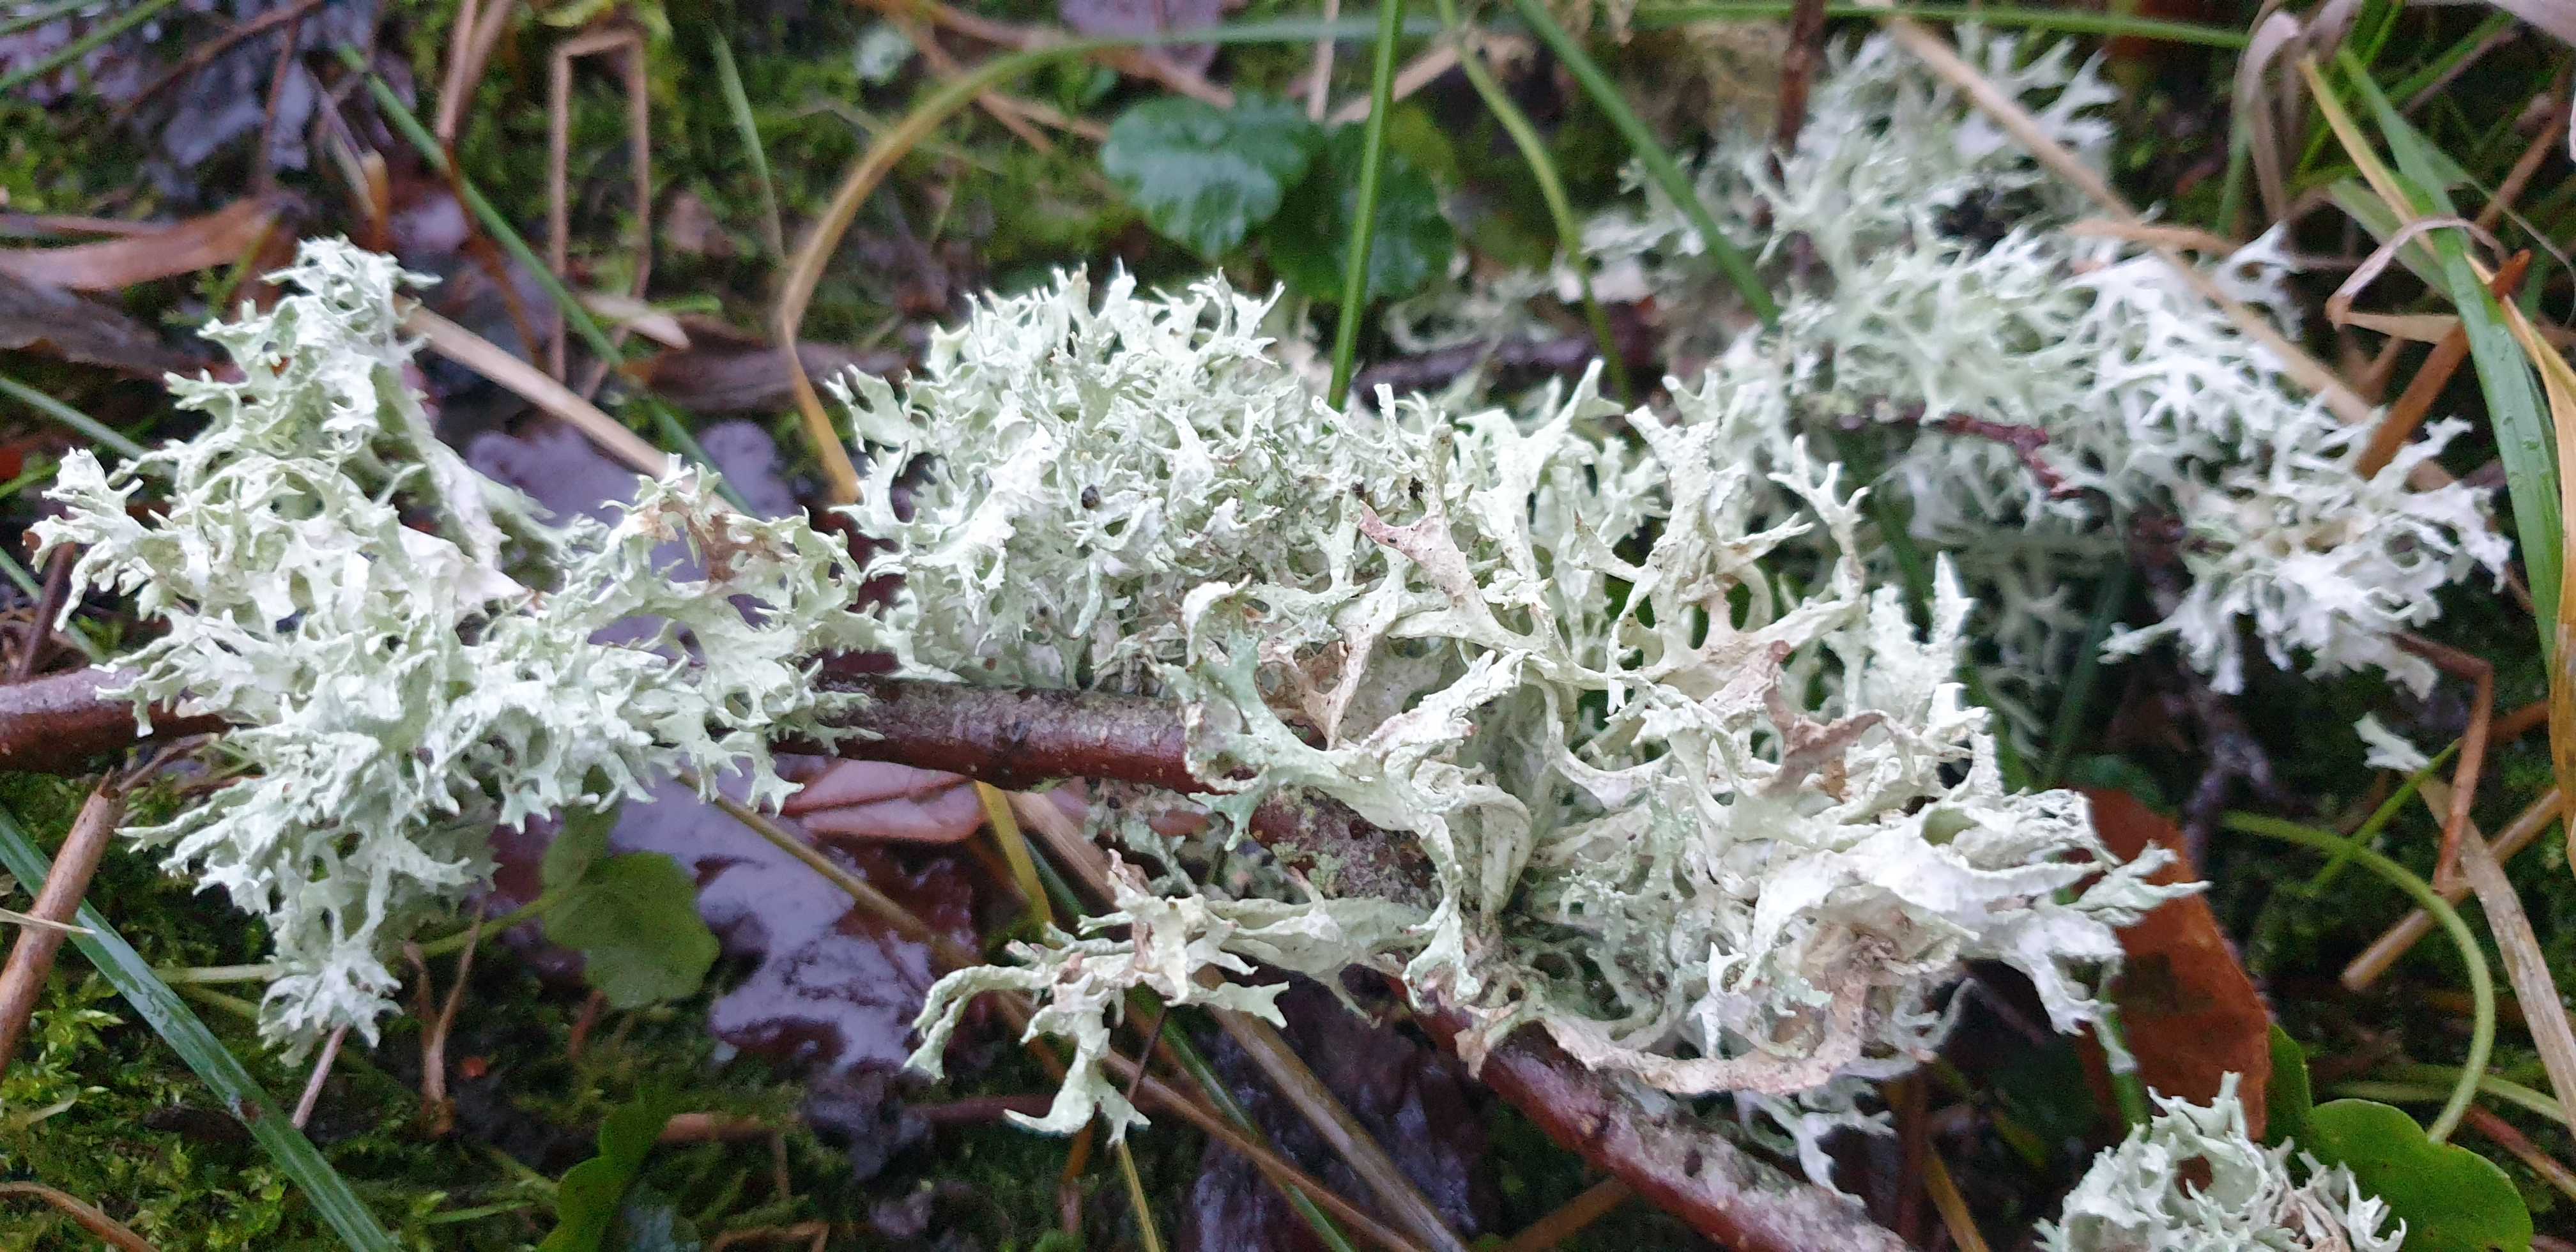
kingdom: Fungi
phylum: Ascomycota
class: Lecanoromycetes
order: Lecanorales
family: Parmeliaceae
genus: Evernia
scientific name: Evernia prunastri
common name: almindelig slåenlav
